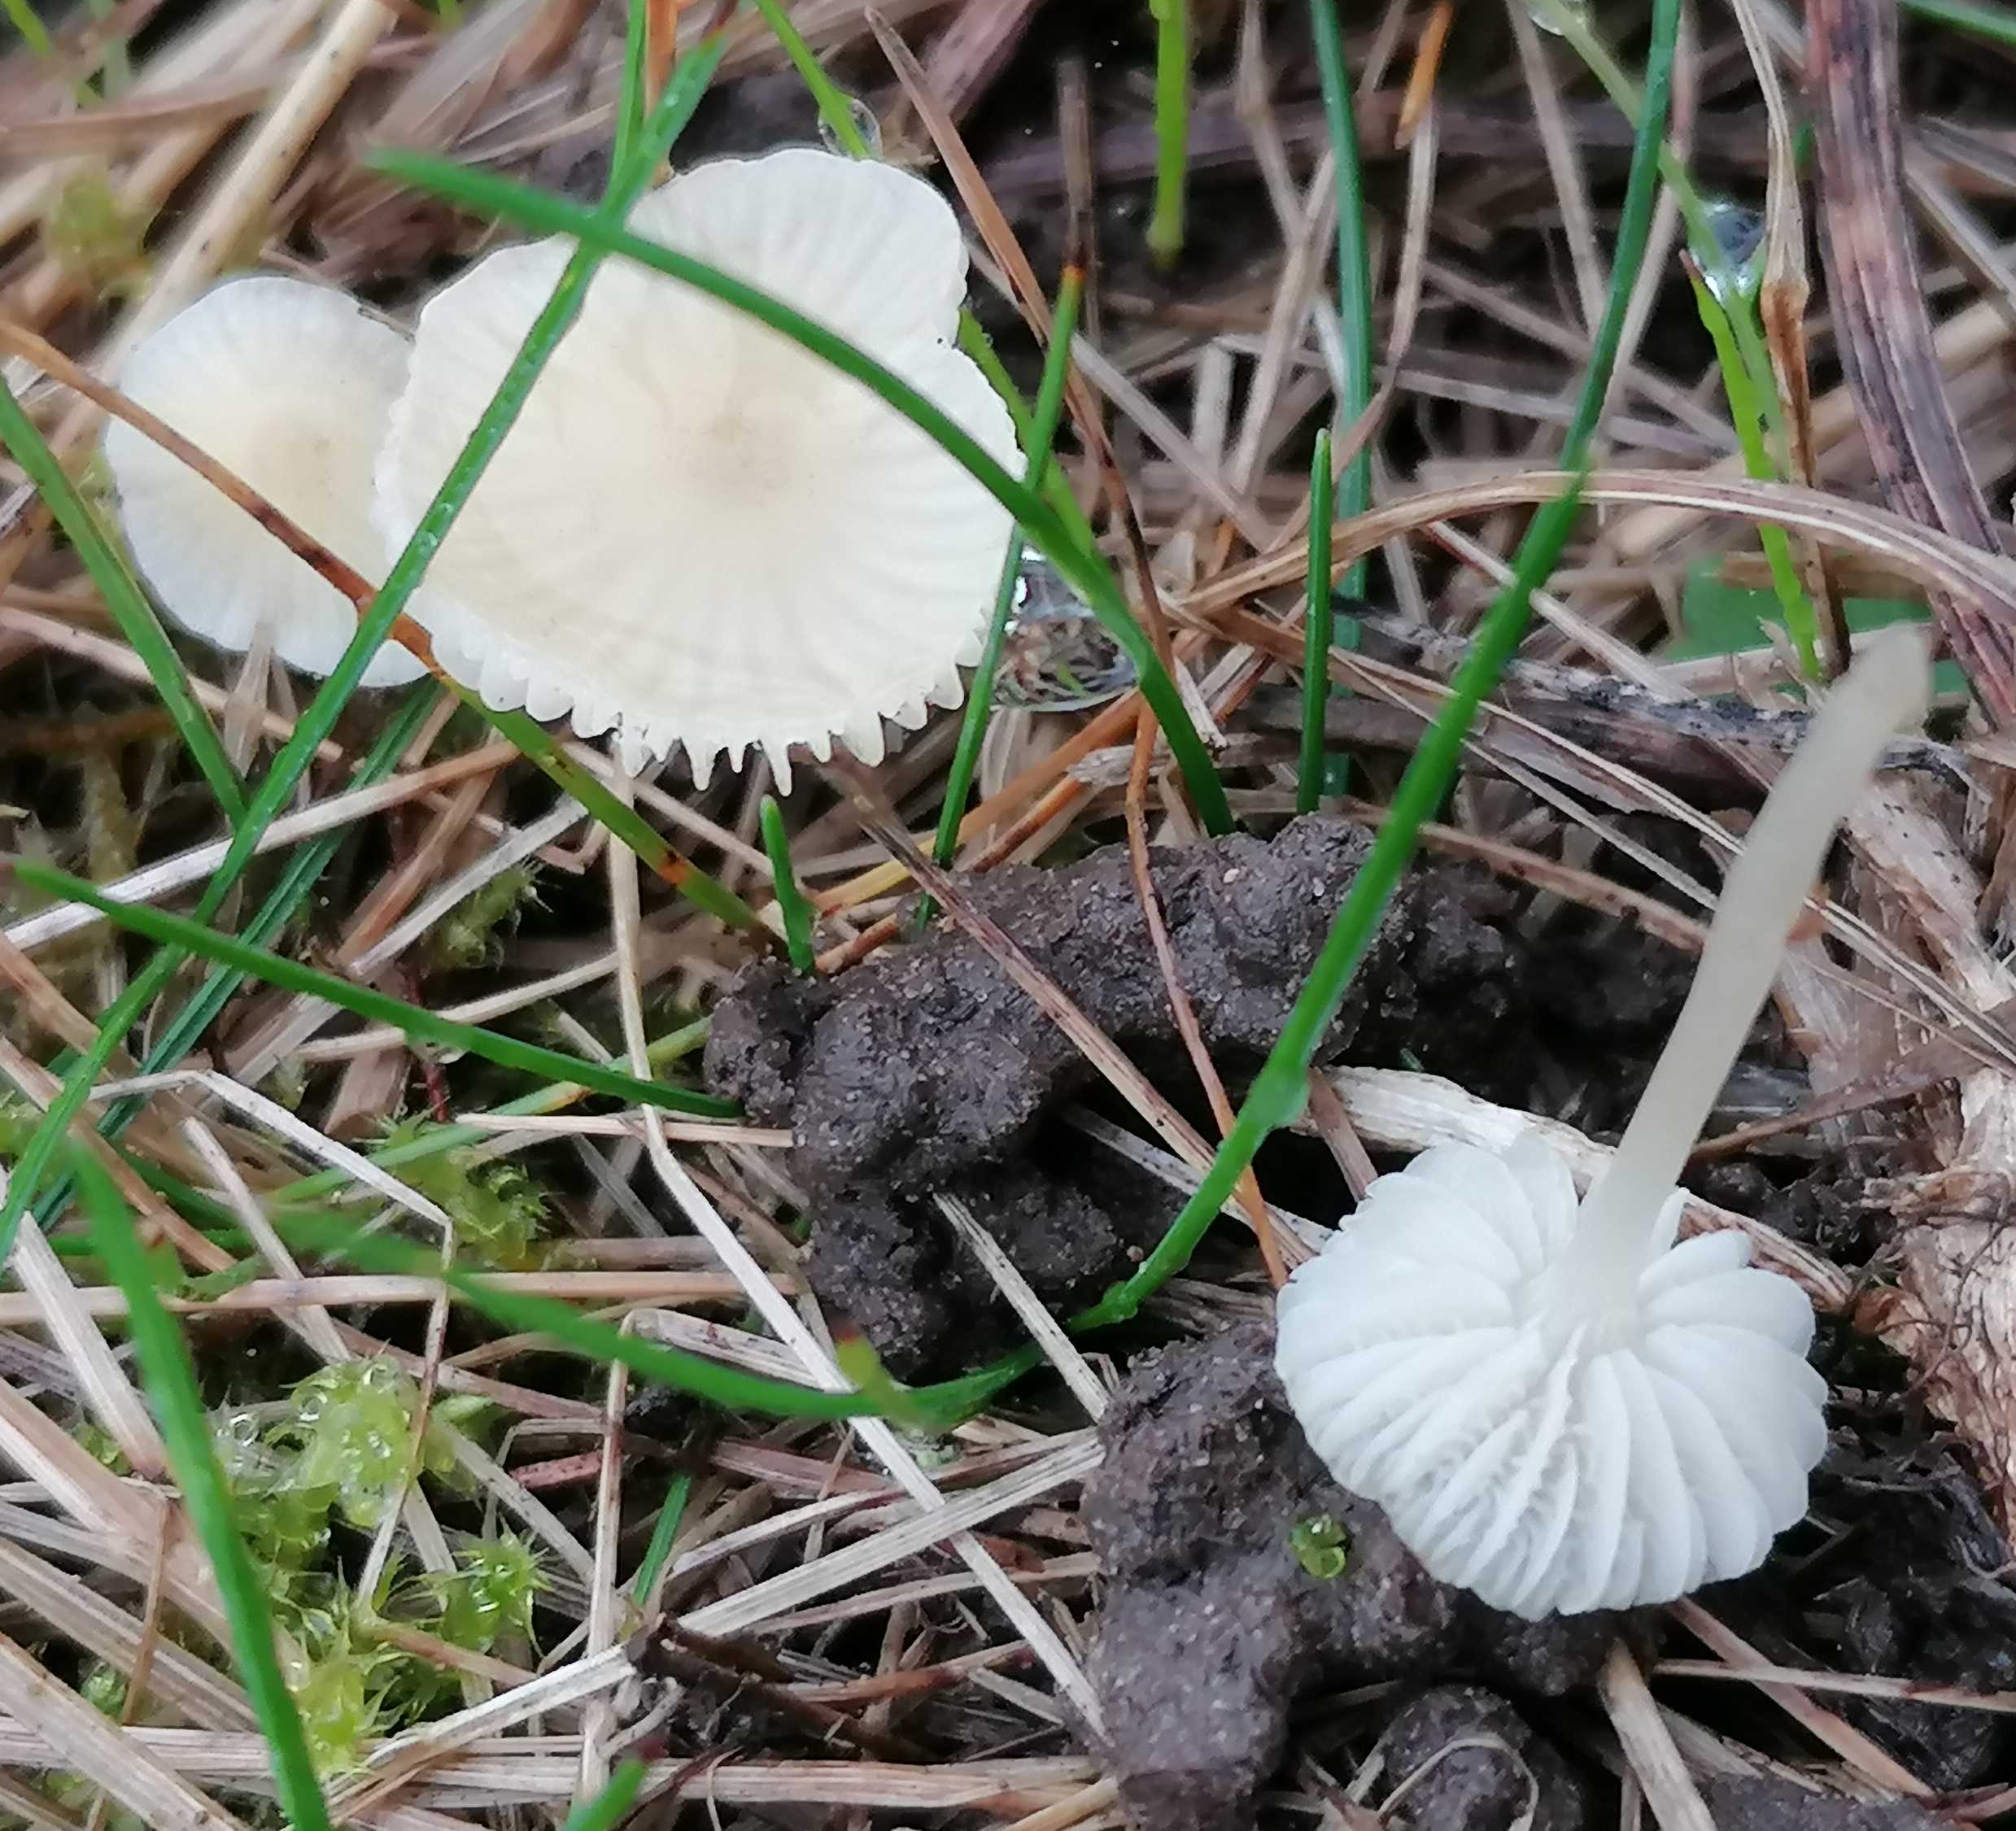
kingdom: Fungi
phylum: Basidiomycota
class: Agaricomycetes
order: Agaricales
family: Mycenaceae
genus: Atheniella
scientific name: Atheniella flavoalba
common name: gulhvid huesvamp
